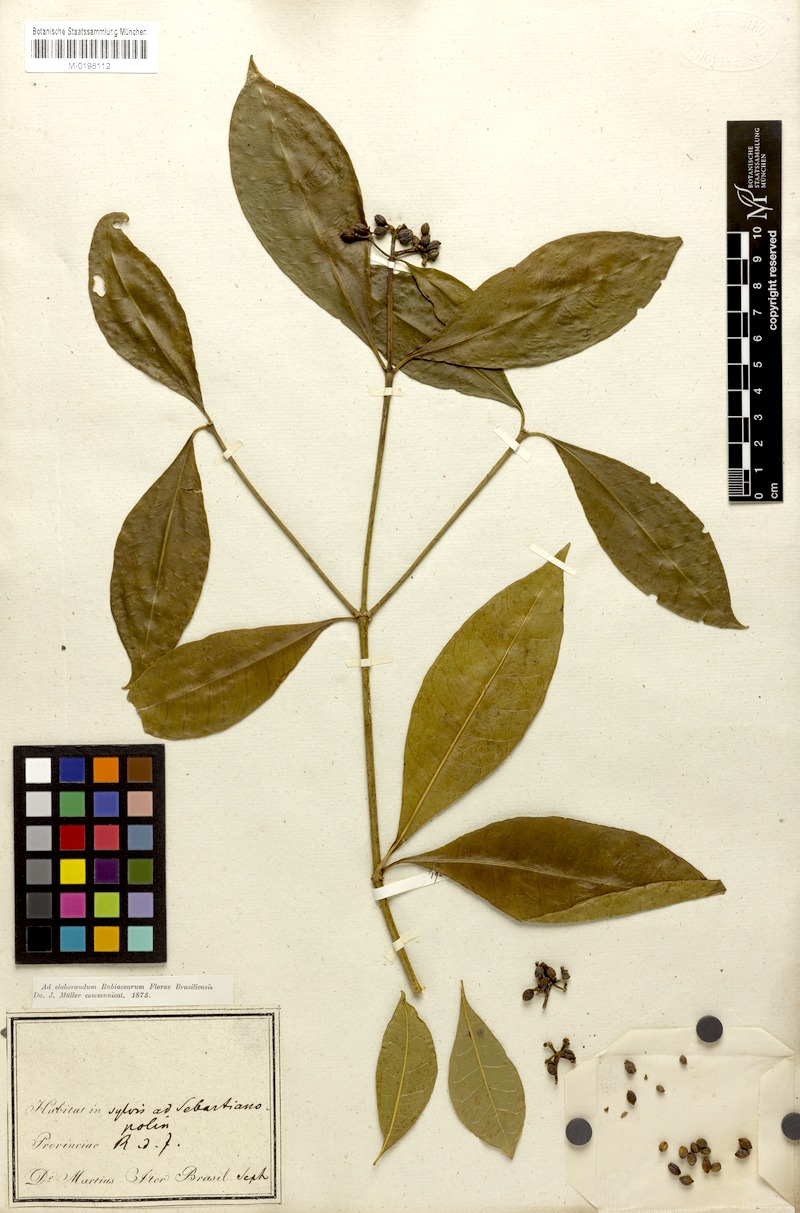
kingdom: Plantae
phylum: Tracheophyta
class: Magnoliopsida
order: Gentianales
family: Rubiaceae
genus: Eumachia
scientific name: Eumachia chaenotricha
